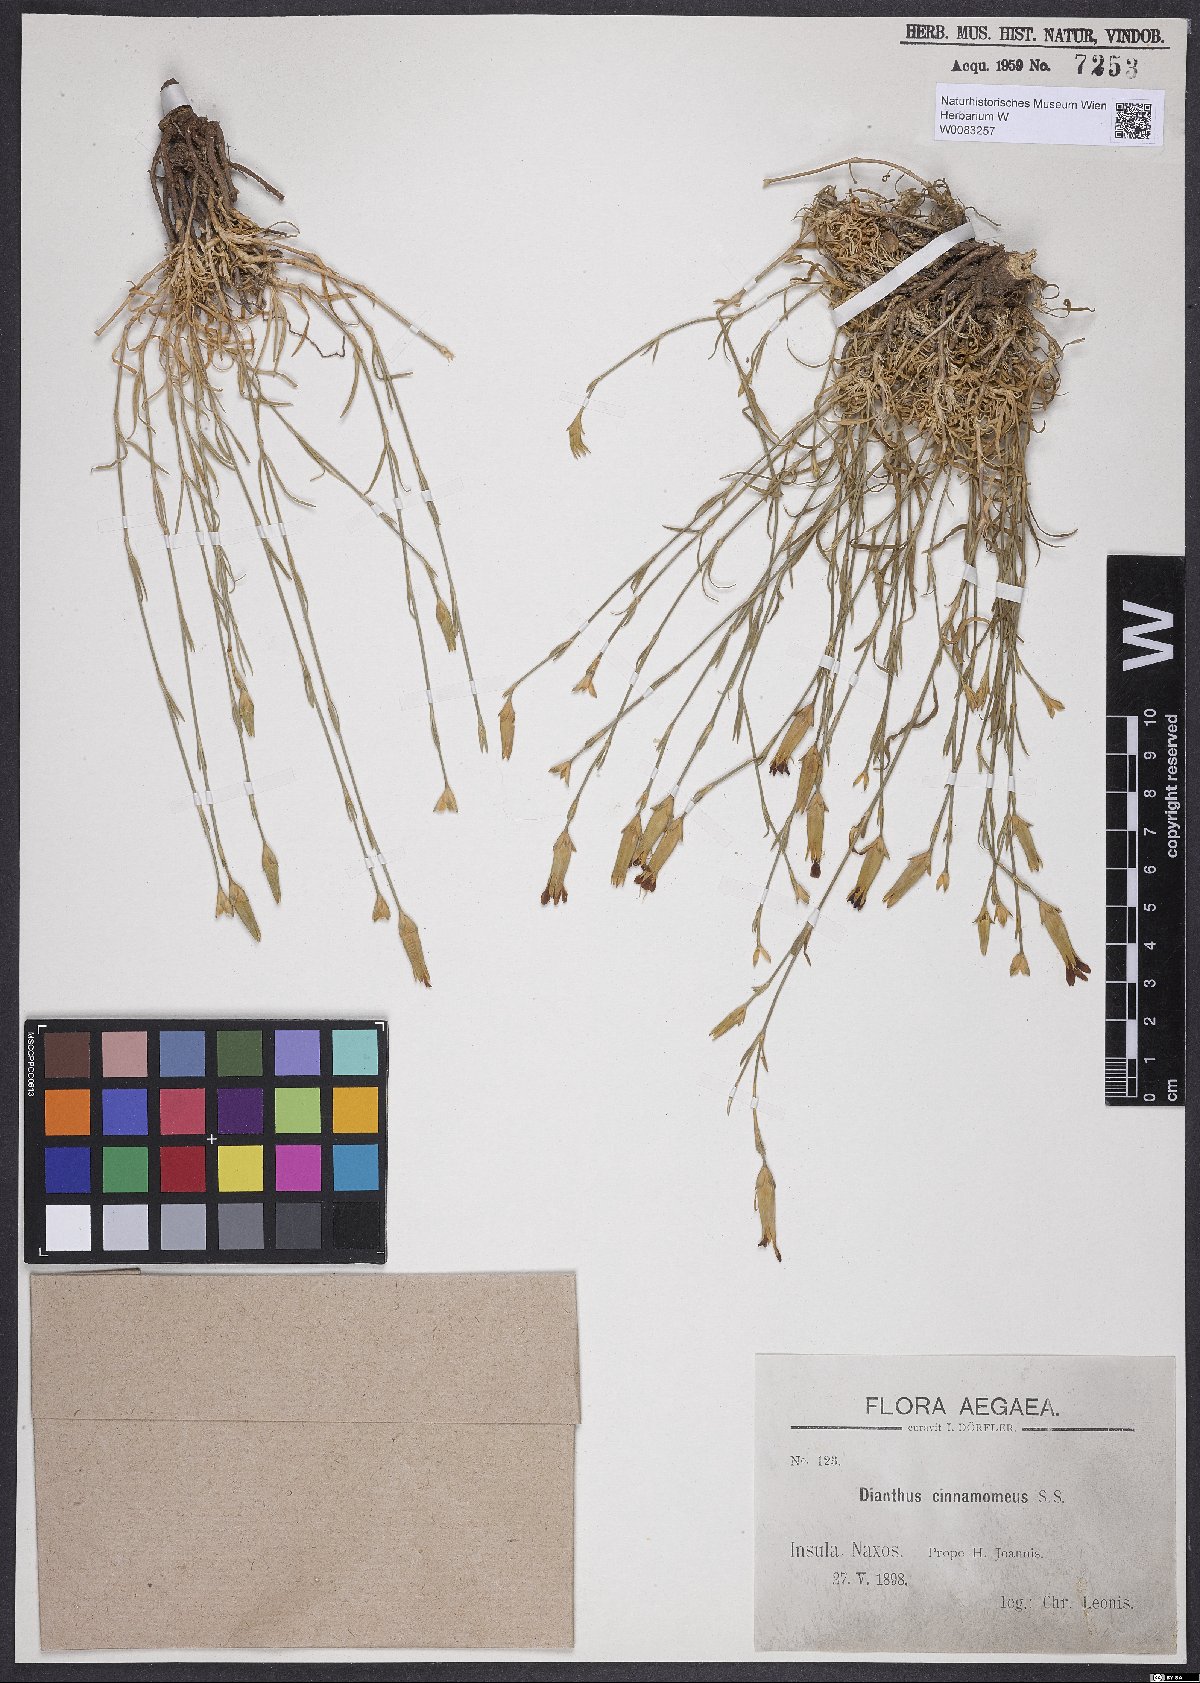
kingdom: Plantae
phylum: Tracheophyta
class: Magnoliopsida
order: Caryophyllales
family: Caryophyllaceae
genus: Dianthus
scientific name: Dianthus cinnamomeus
